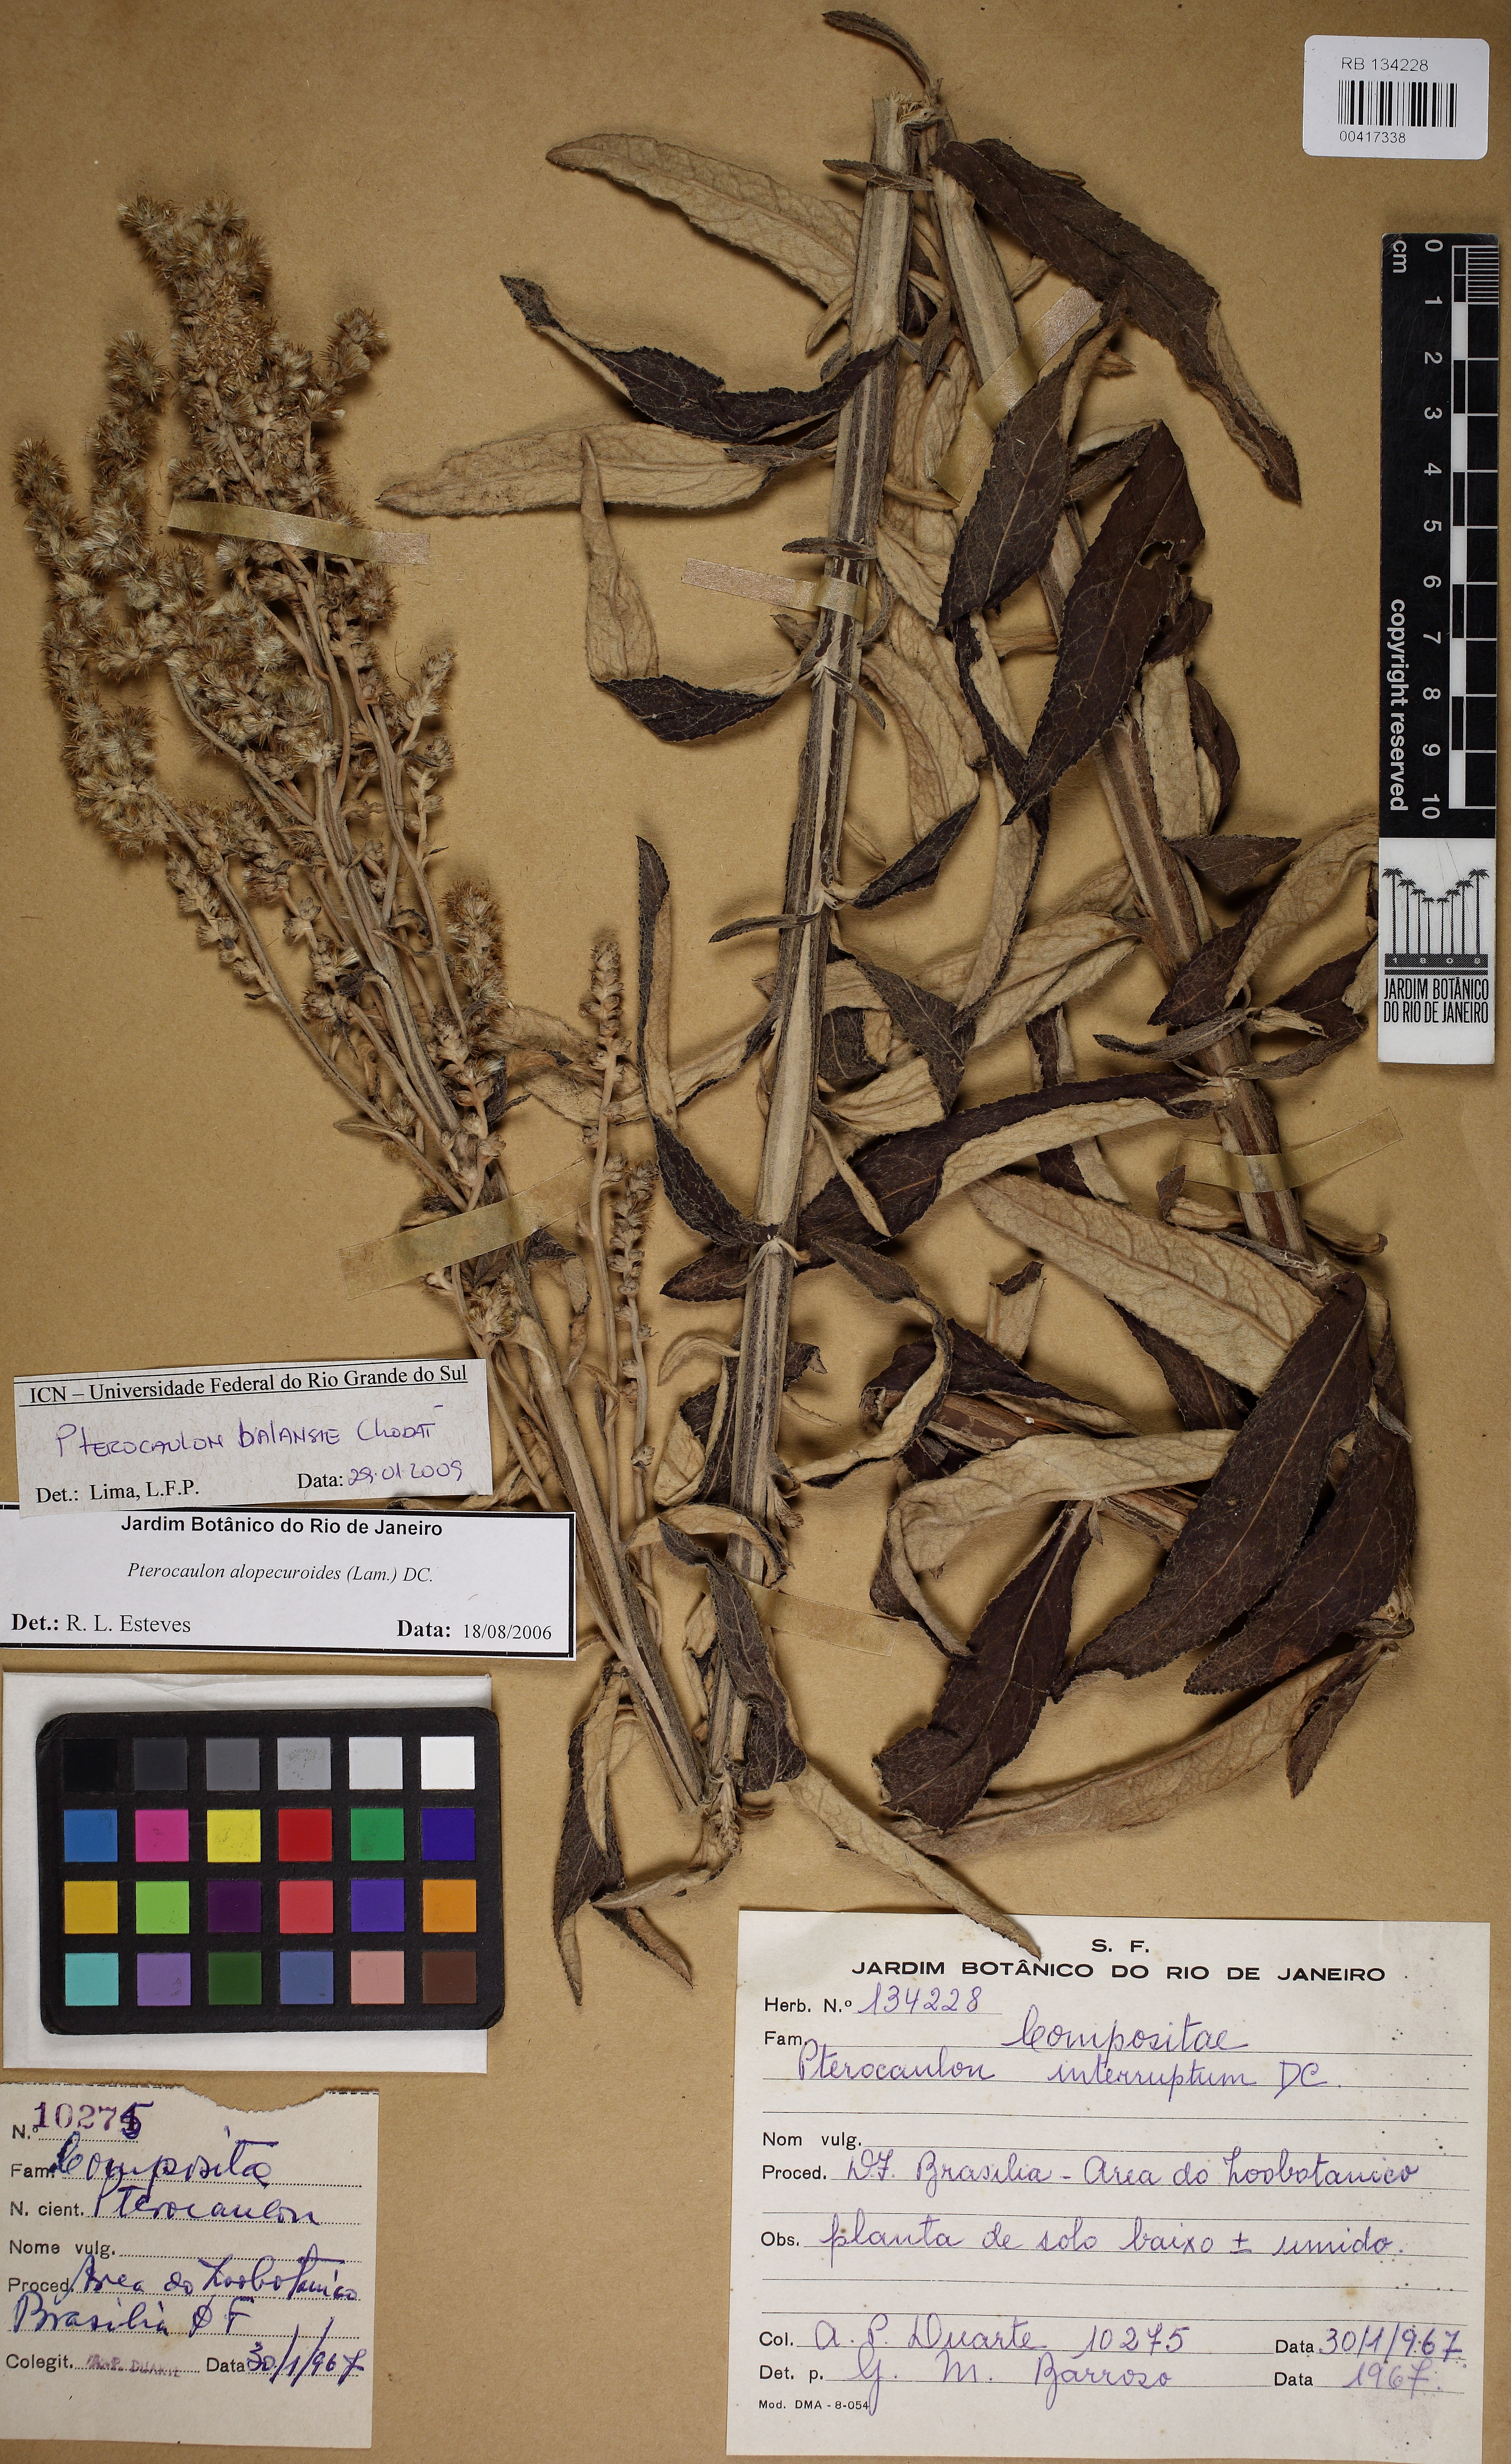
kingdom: Plantae
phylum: Tracheophyta
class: Magnoliopsida
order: Asterales
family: Asteraceae
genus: Pterocaulon
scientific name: Pterocaulon balansae
